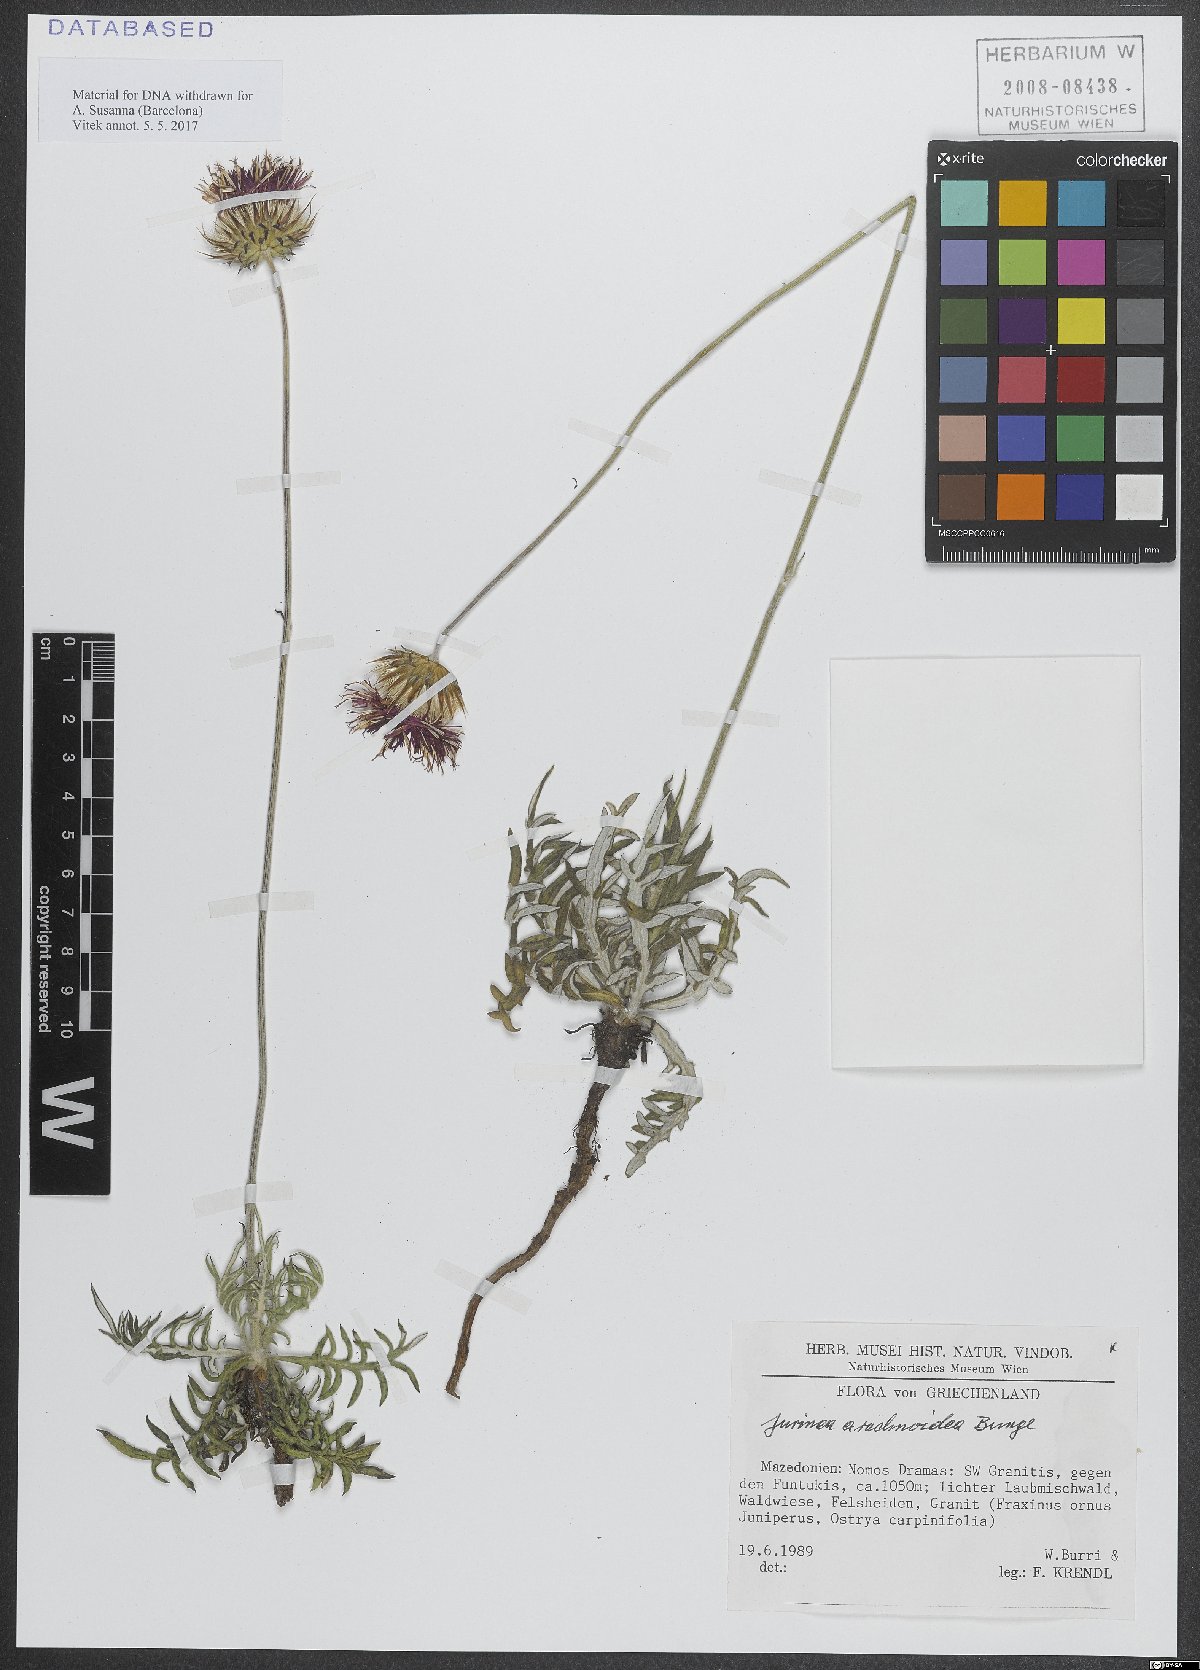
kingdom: Plantae
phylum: Tracheophyta
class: Magnoliopsida
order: Asterales
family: Asteraceae
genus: Jurinea
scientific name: Jurinea arachnoidea
